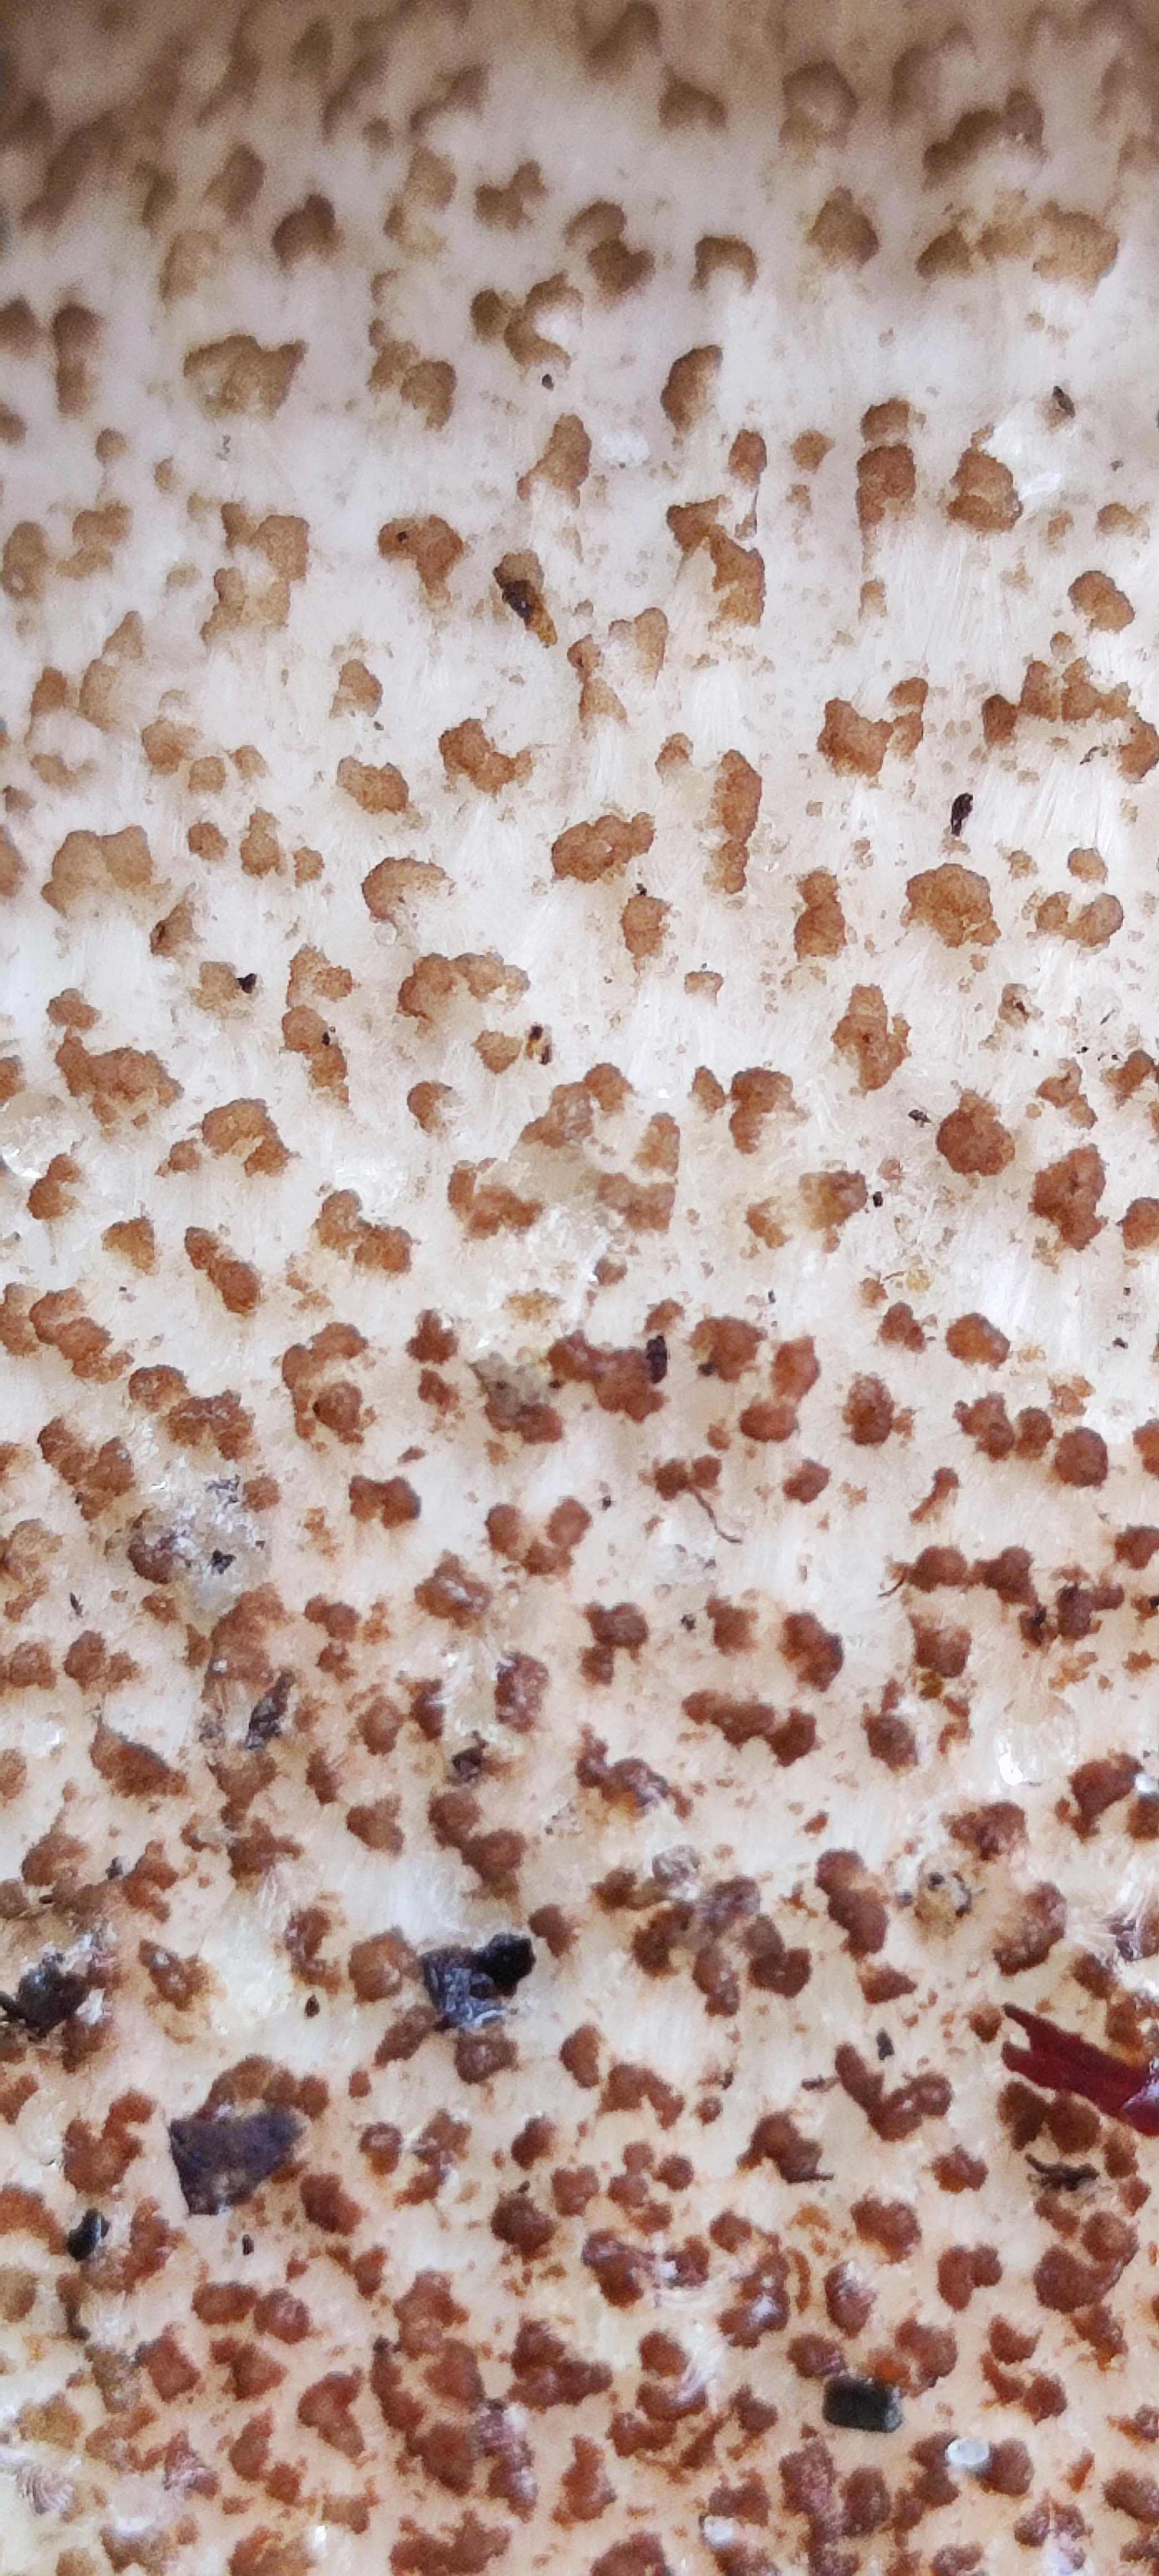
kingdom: Fungi
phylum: Basidiomycota
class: Agaricomycetes
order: Boletales
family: Boletaceae
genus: Leccinum
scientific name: Leccinum aurantiacum
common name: rustrød skælrørhat
